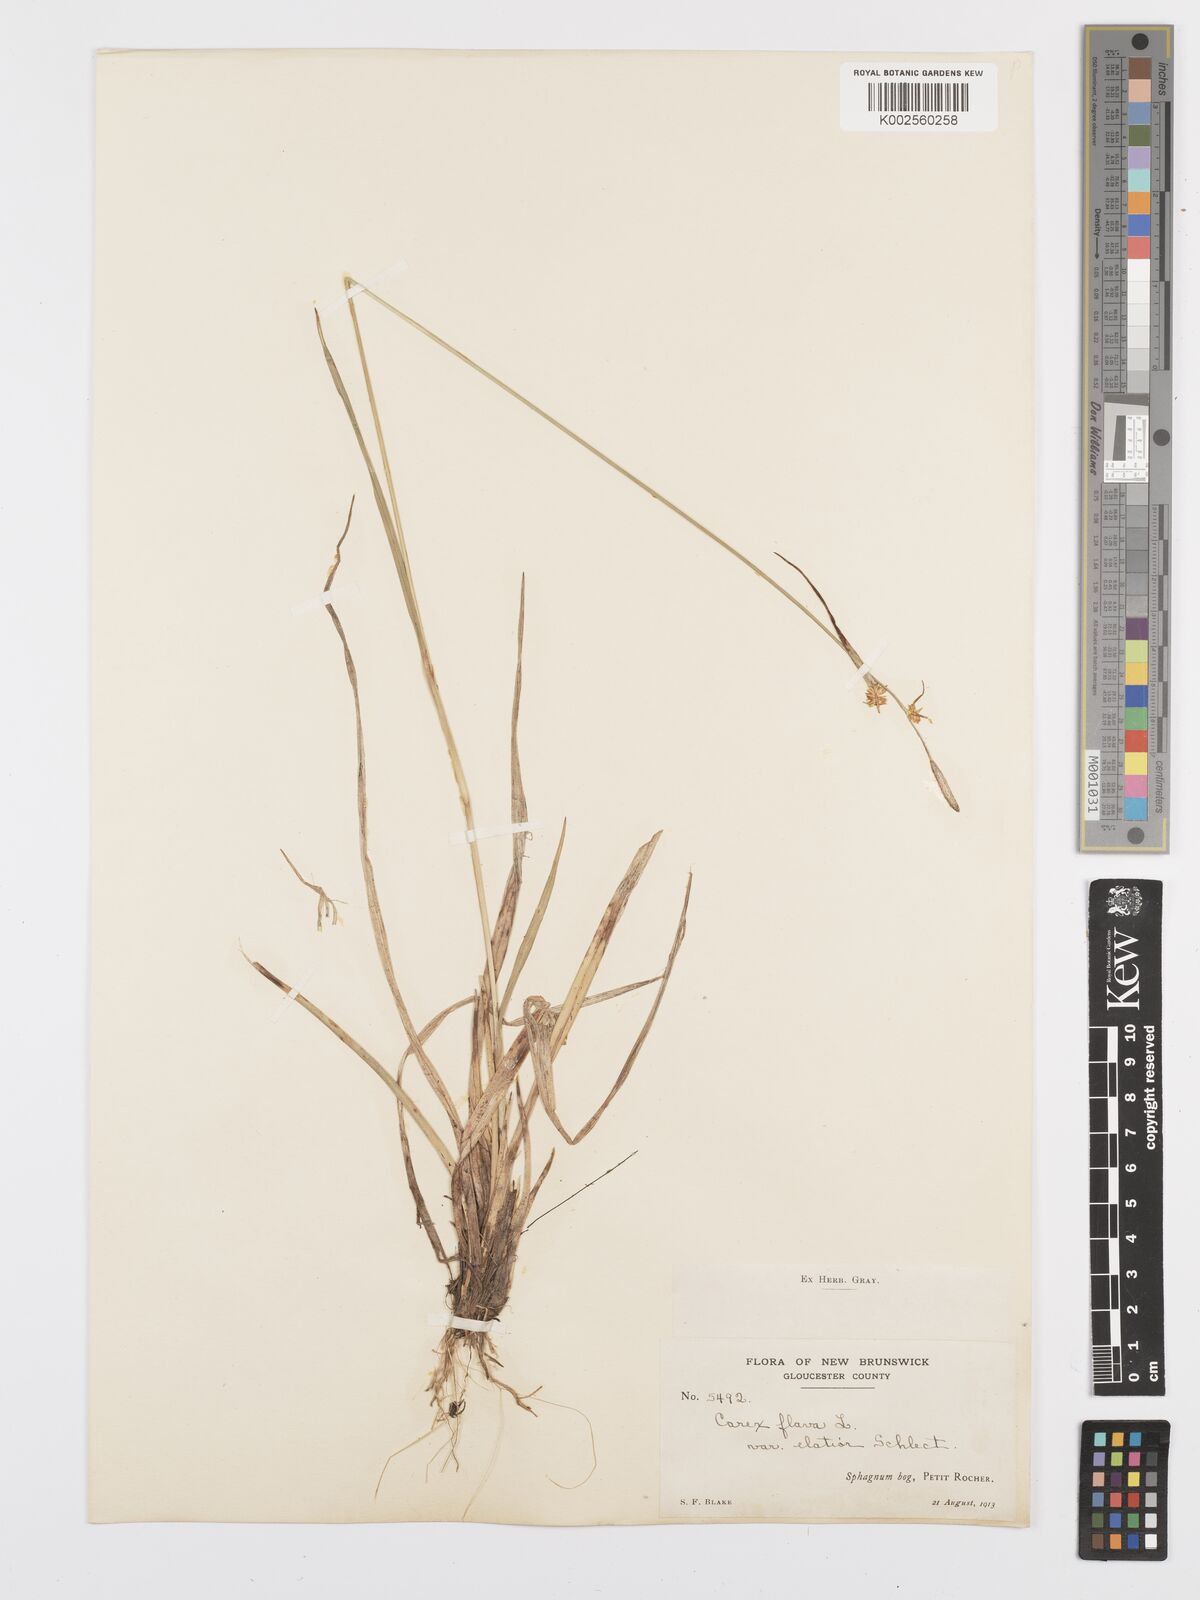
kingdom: Plantae
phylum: Tracheophyta
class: Liliopsida
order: Poales
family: Cyperaceae
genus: Carex
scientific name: Carex flava
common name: Large yellow-sedge
